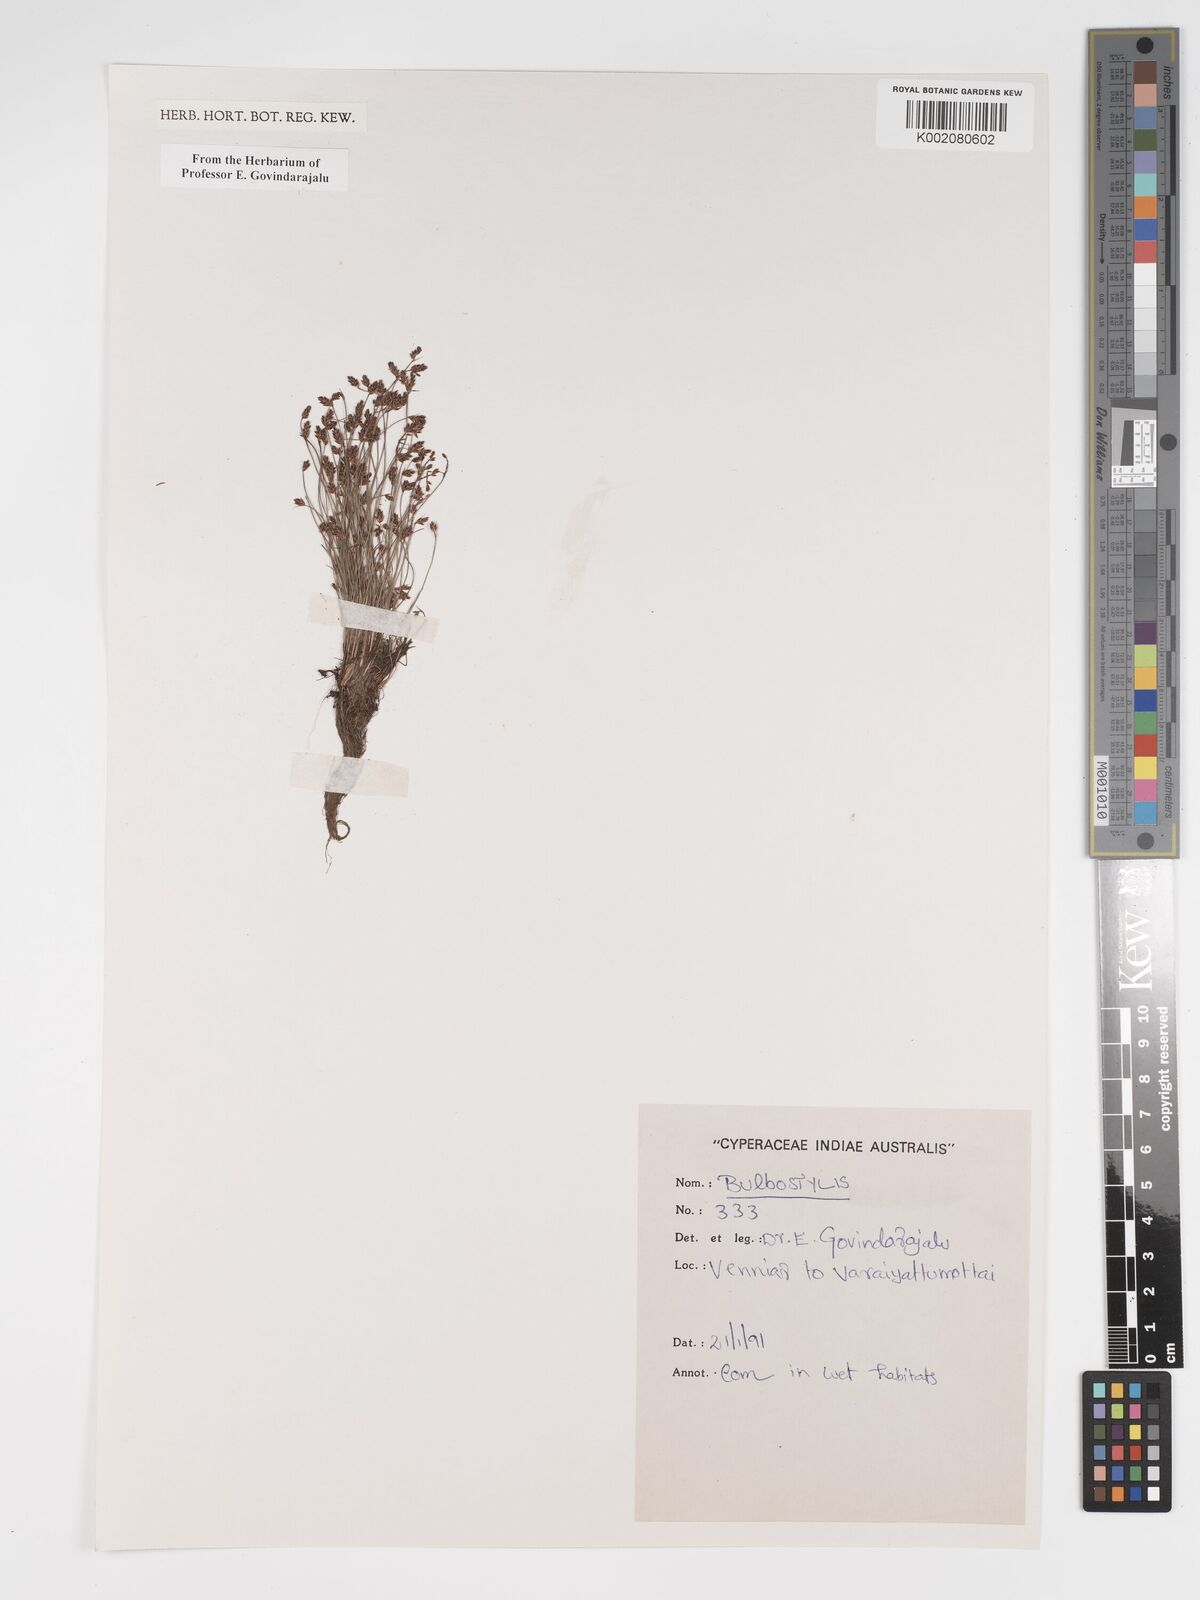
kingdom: Plantae
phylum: Tracheophyta
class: Liliopsida
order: Poales
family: Cyperaceae
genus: Bulbostylis
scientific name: Bulbostylis
